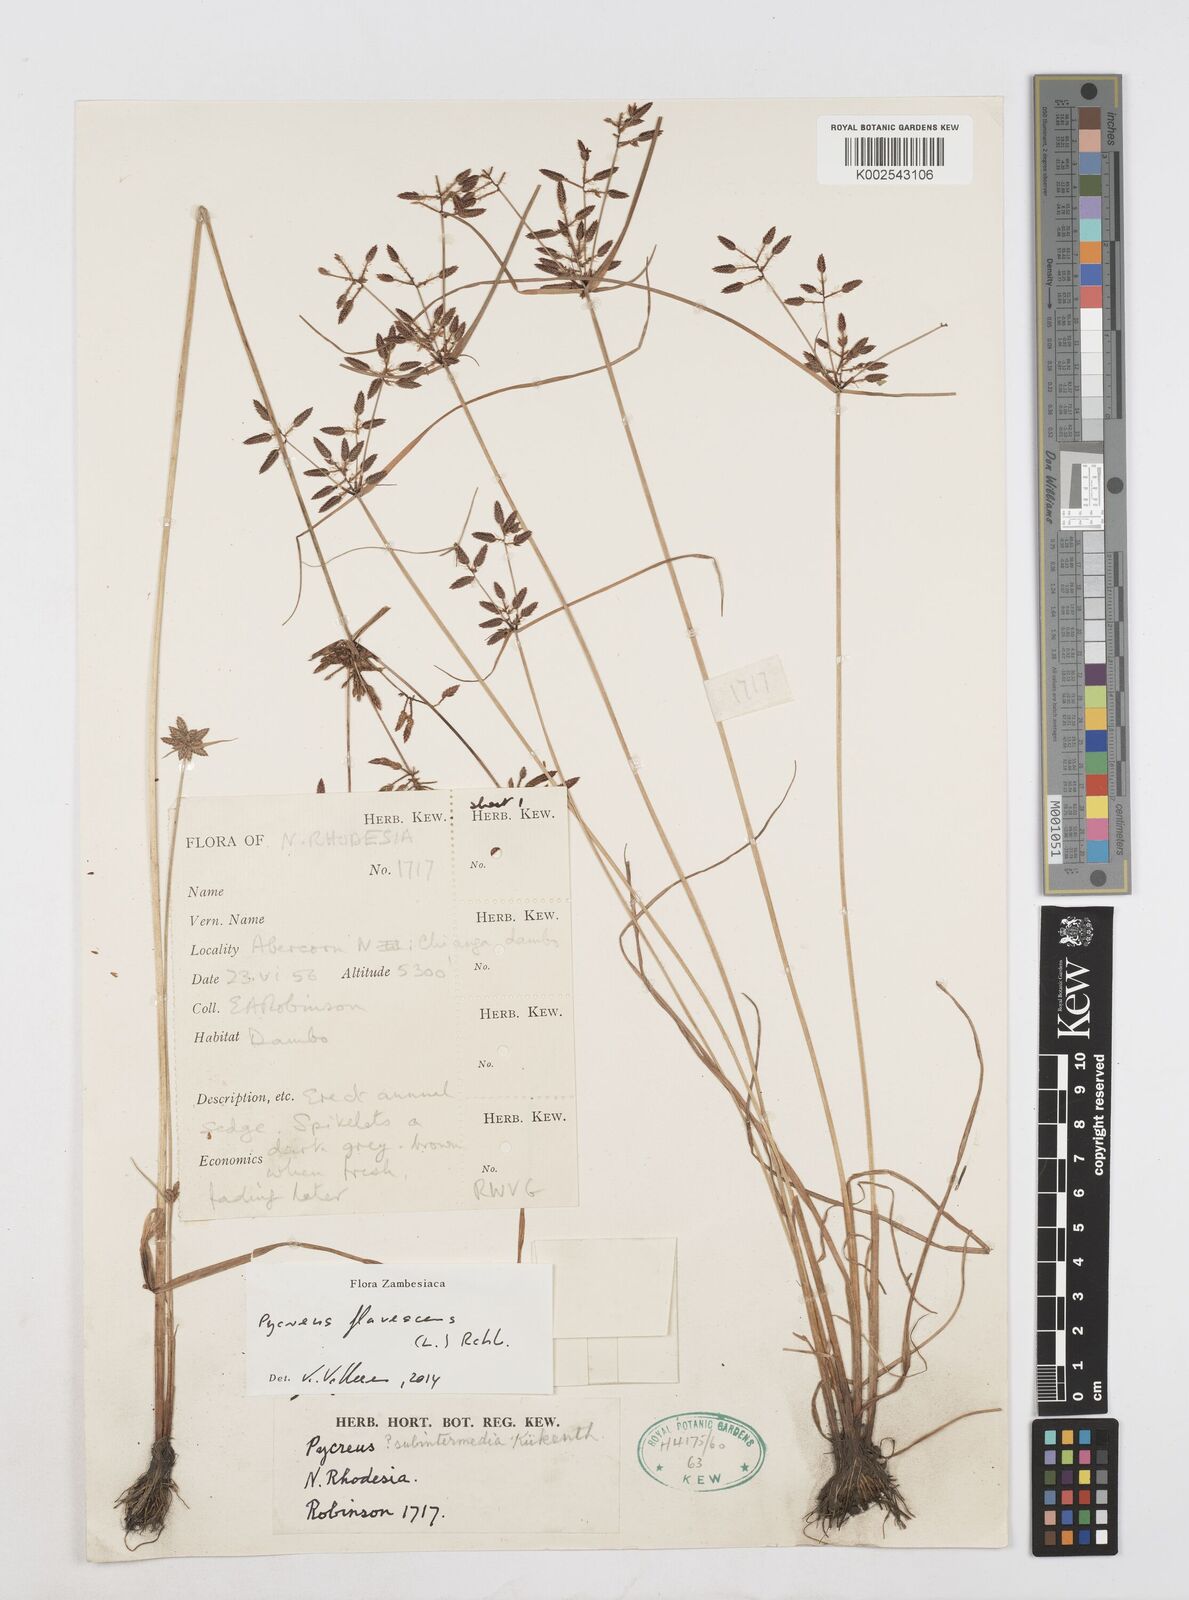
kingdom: Plantae
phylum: Tracheophyta
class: Liliopsida
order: Poales
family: Cyperaceae
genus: Cyperus
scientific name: Cyperus flavescens
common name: Yellow galingale
